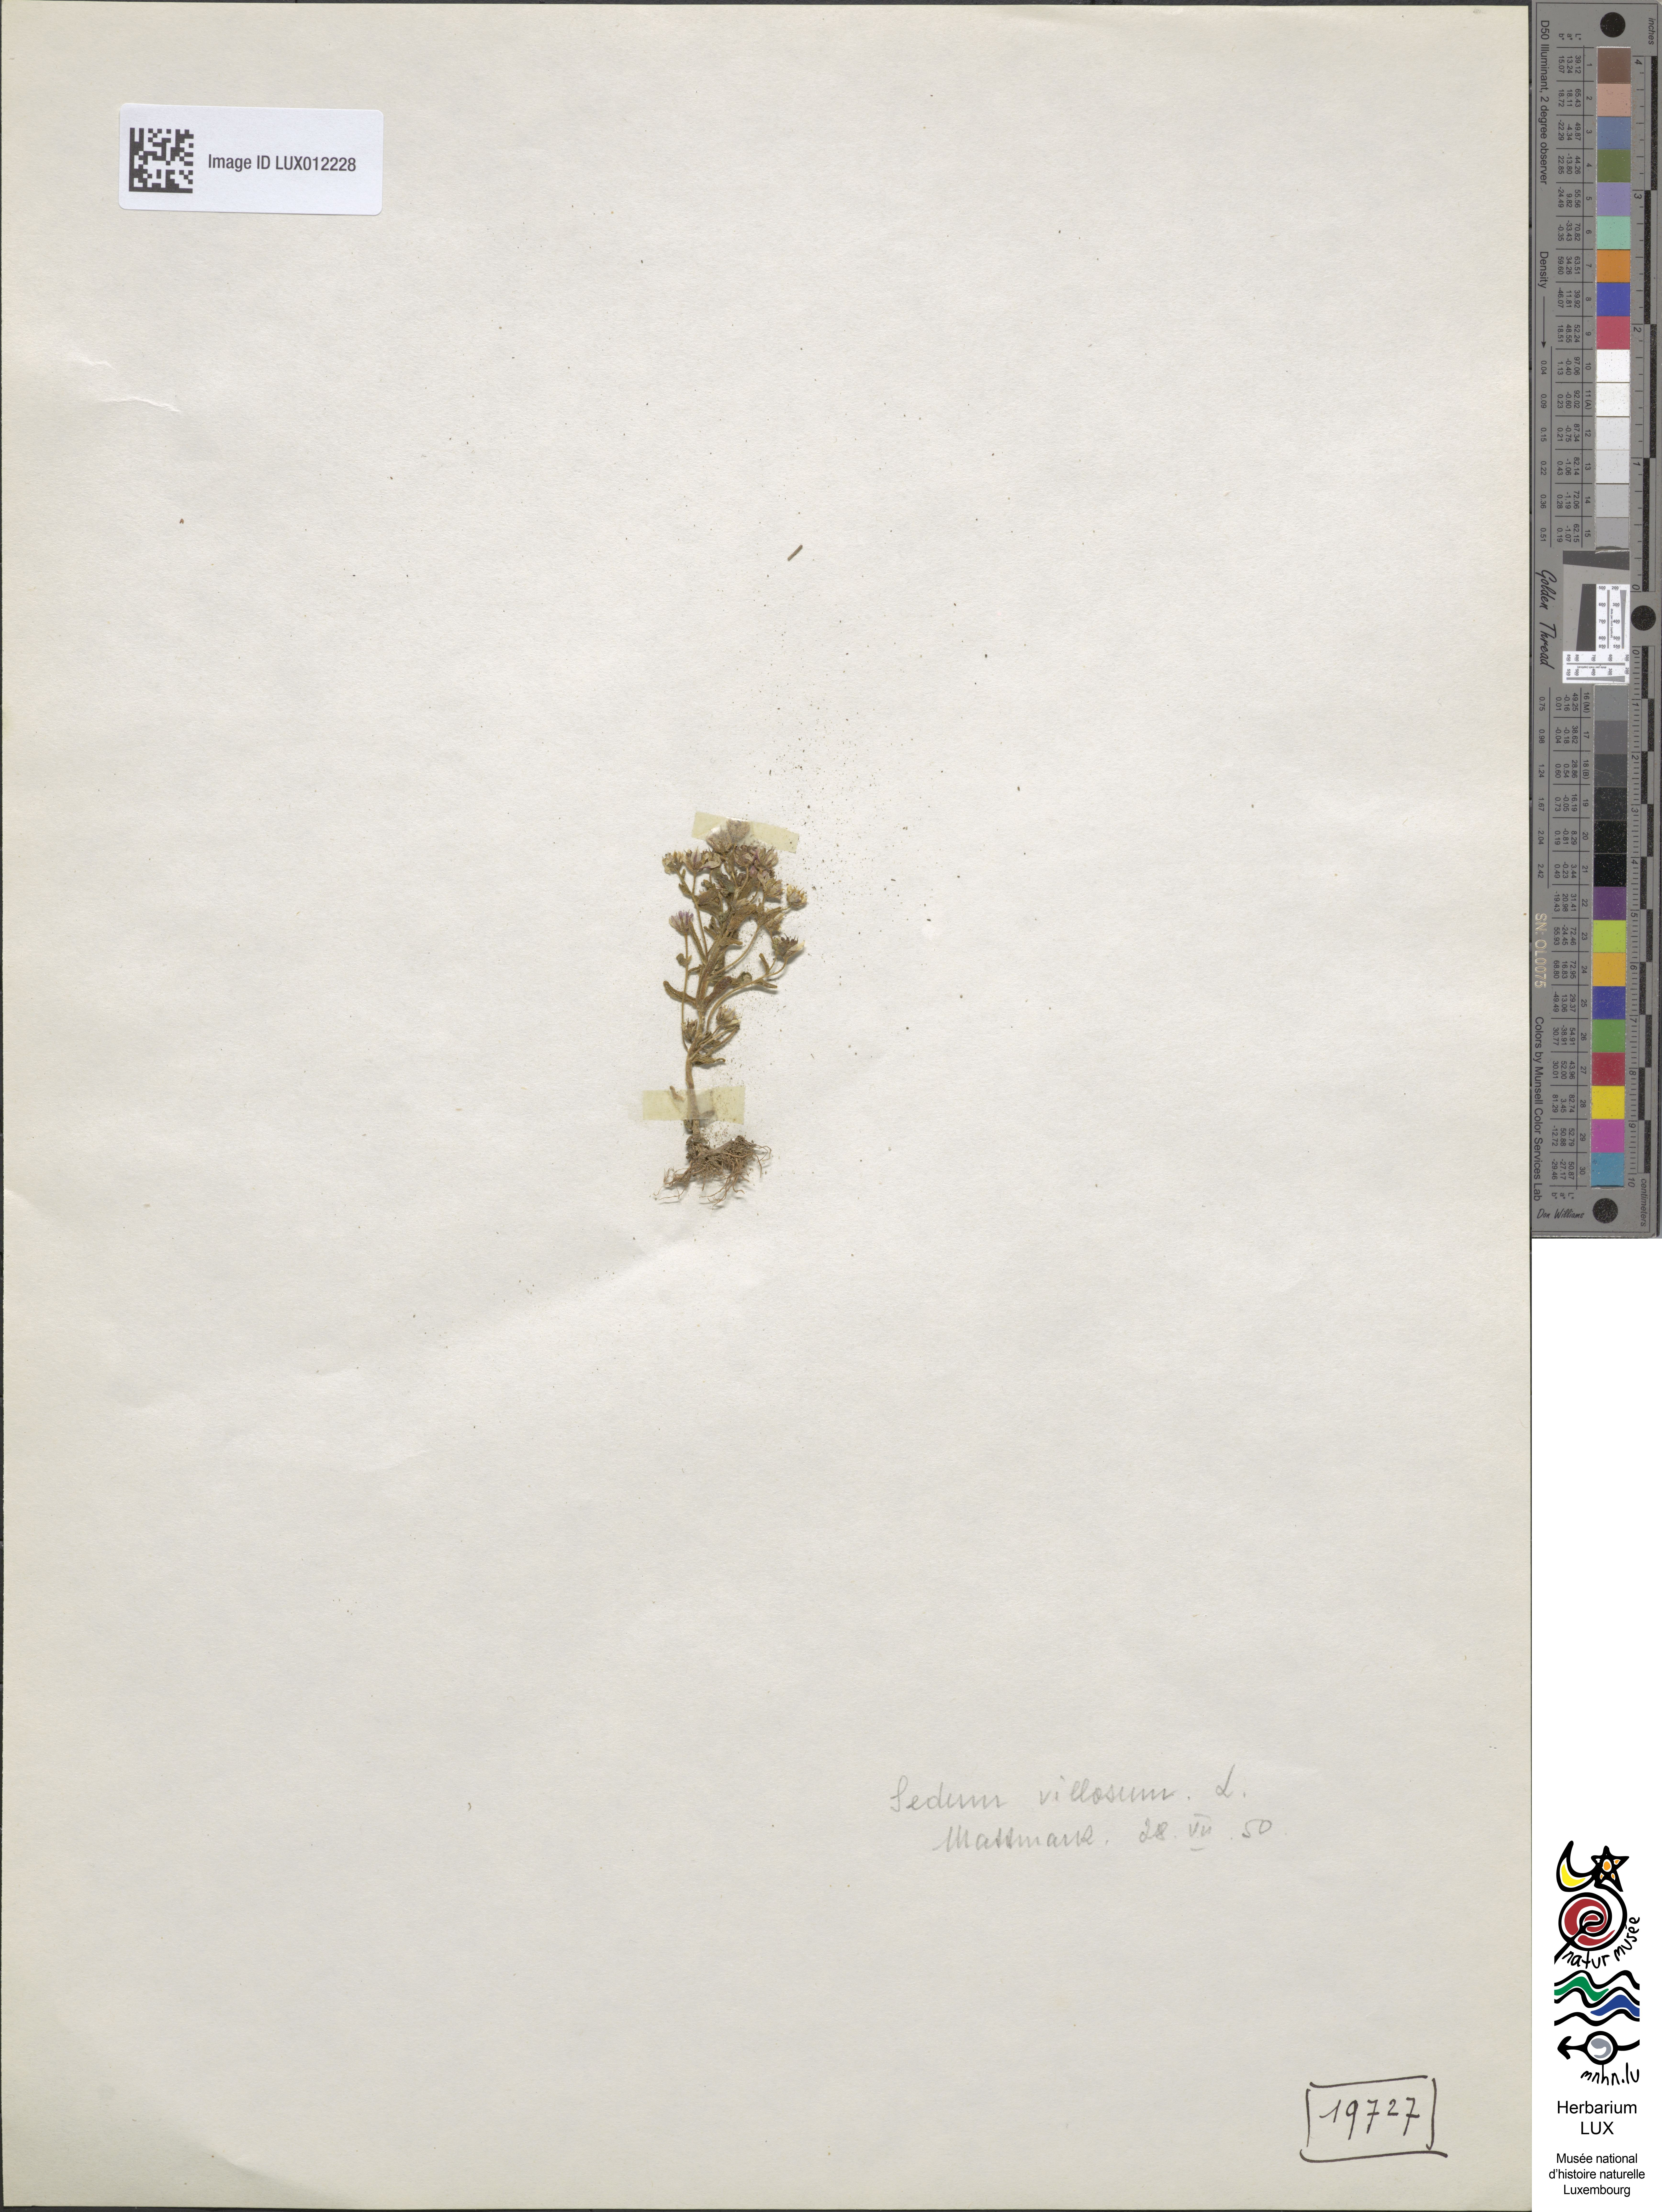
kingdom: Plantae
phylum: Tracheophyta
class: Magnoliopsida
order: Saxifragales
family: Crassulaceae
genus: Sedum
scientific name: Sedum villosum
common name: Hairy stonecrop
